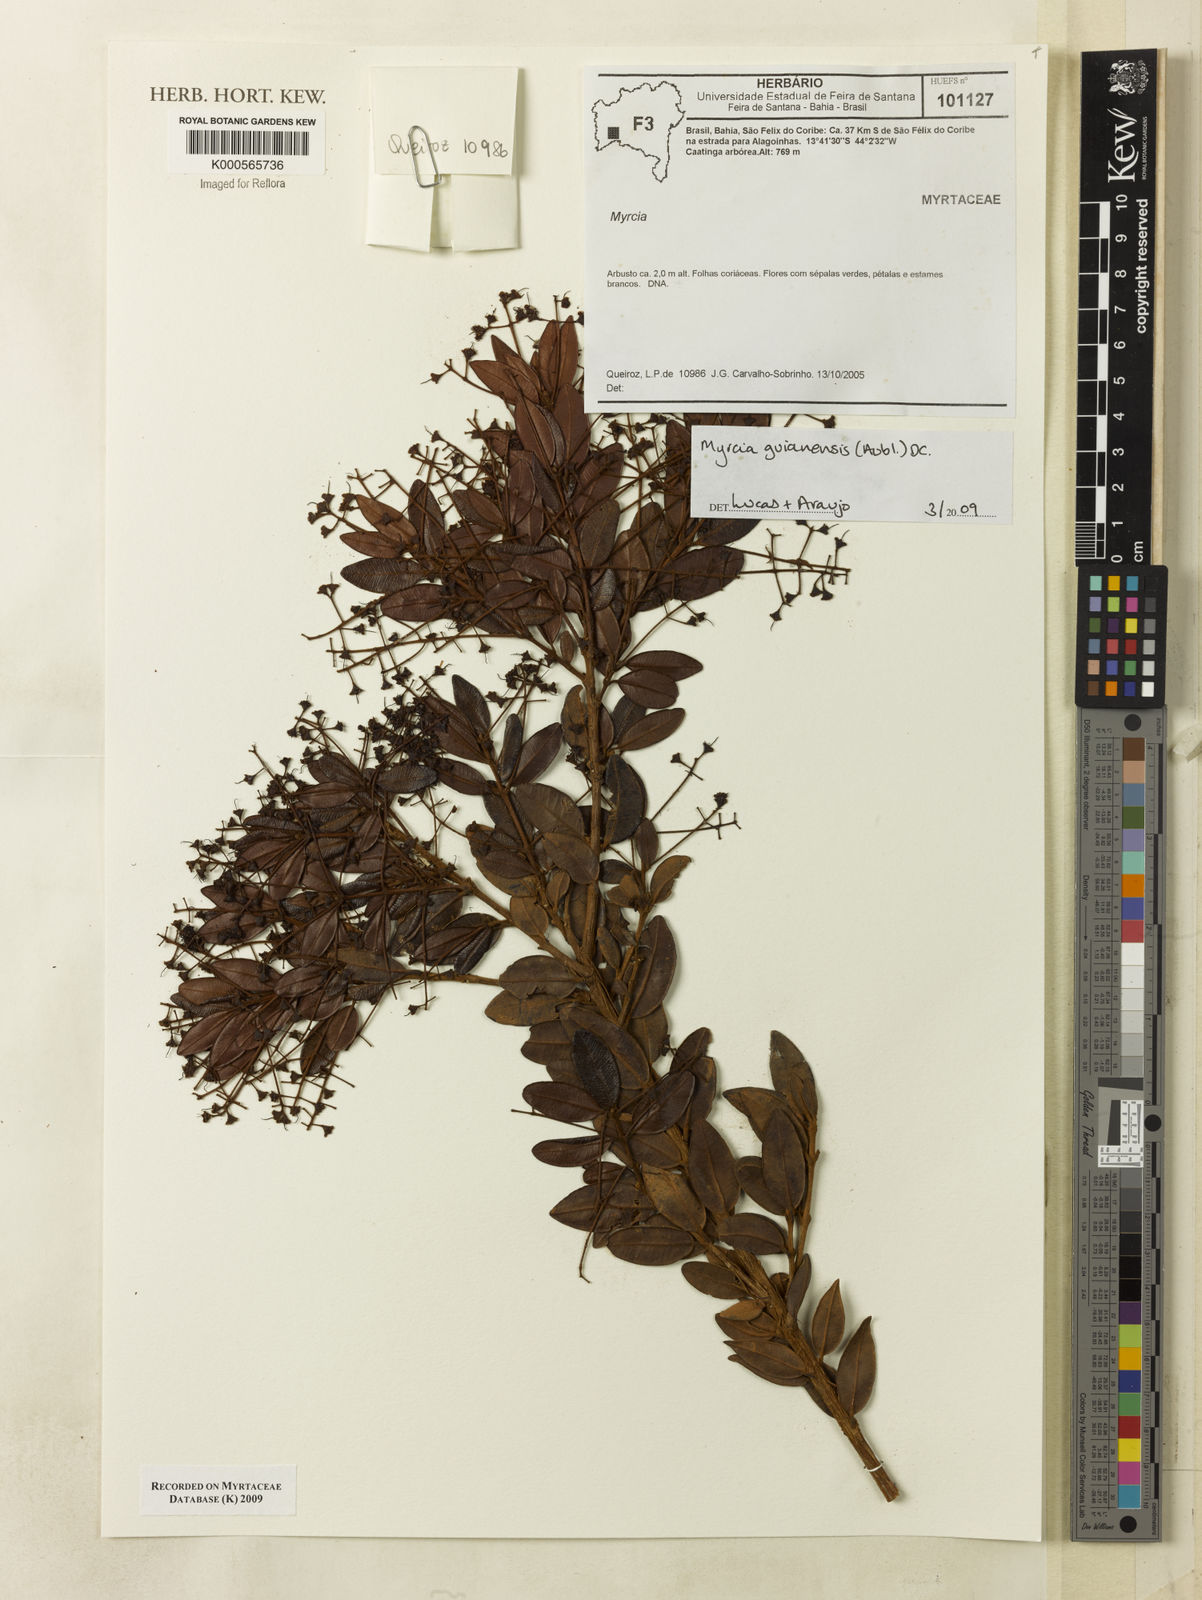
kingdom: Plantae
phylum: Tracheophyta
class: Magnoliopsida
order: Myrtales
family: Myrtaceae
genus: Myrcia
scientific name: Myrcia guianensis
